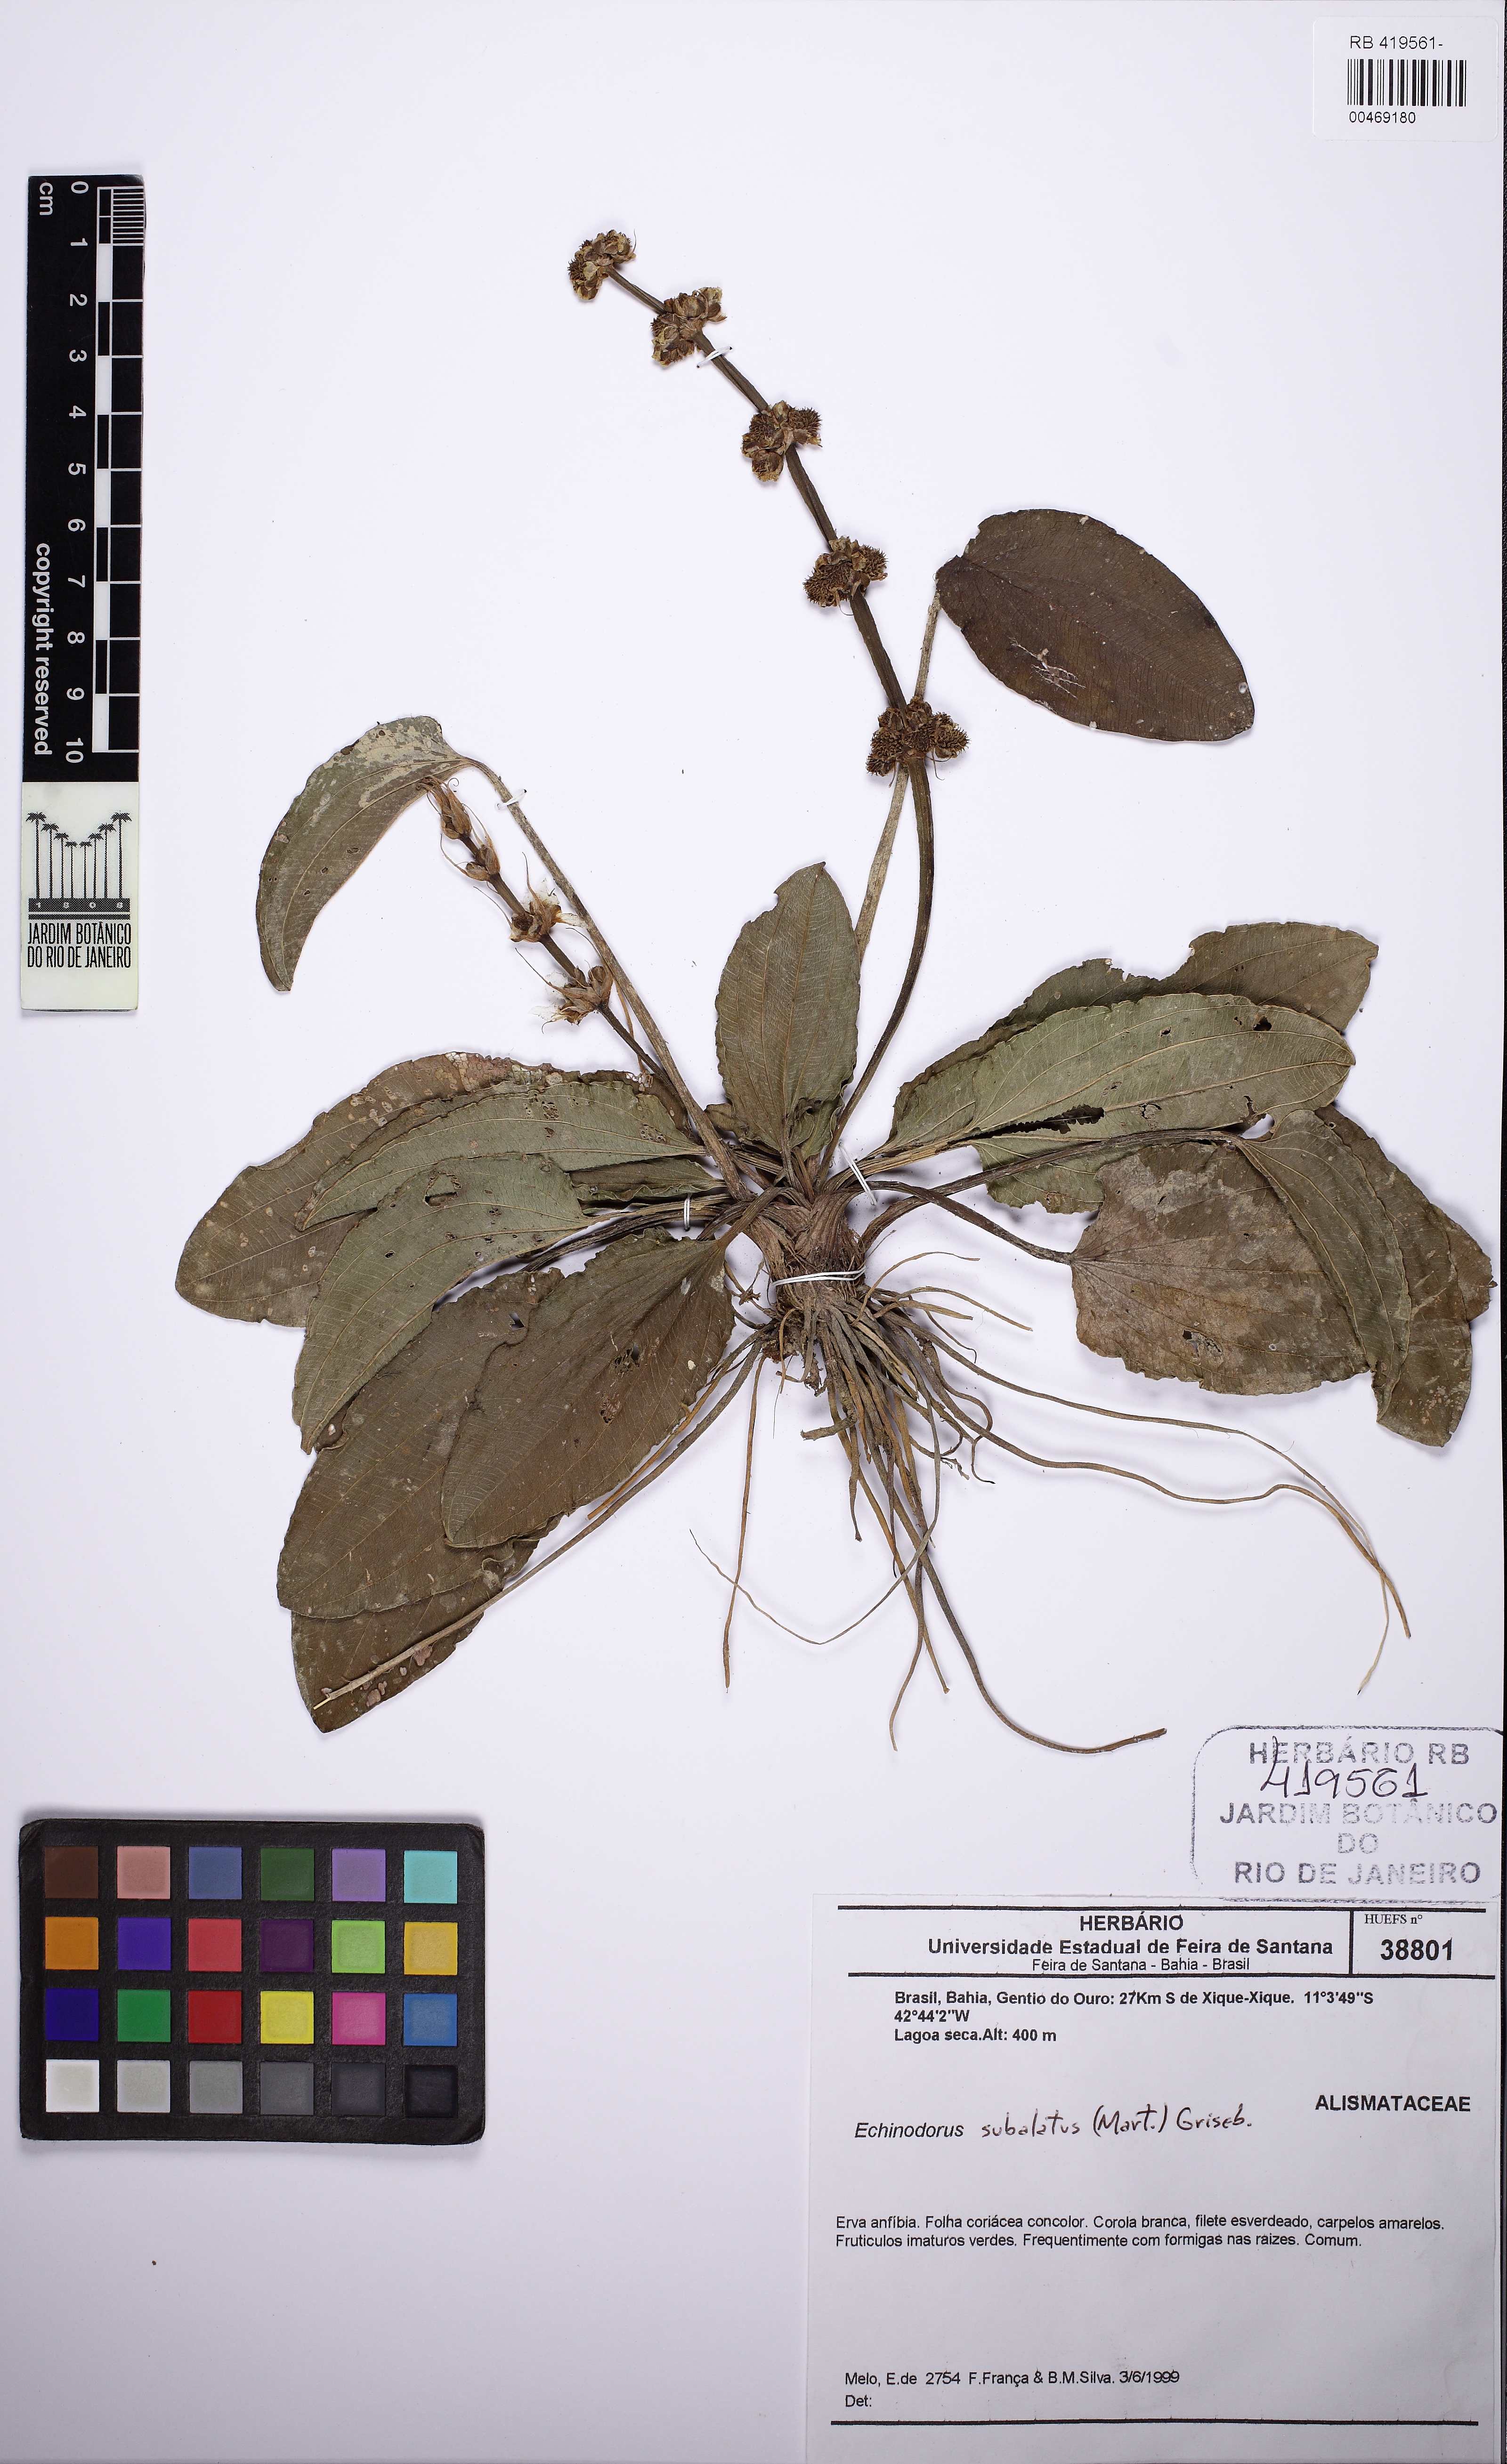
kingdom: Plantae
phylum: Tracheophyta
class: Liliopsida
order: Alismatales
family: Alismataceae
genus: Echinodorus
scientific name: Echinodorus subulatus
